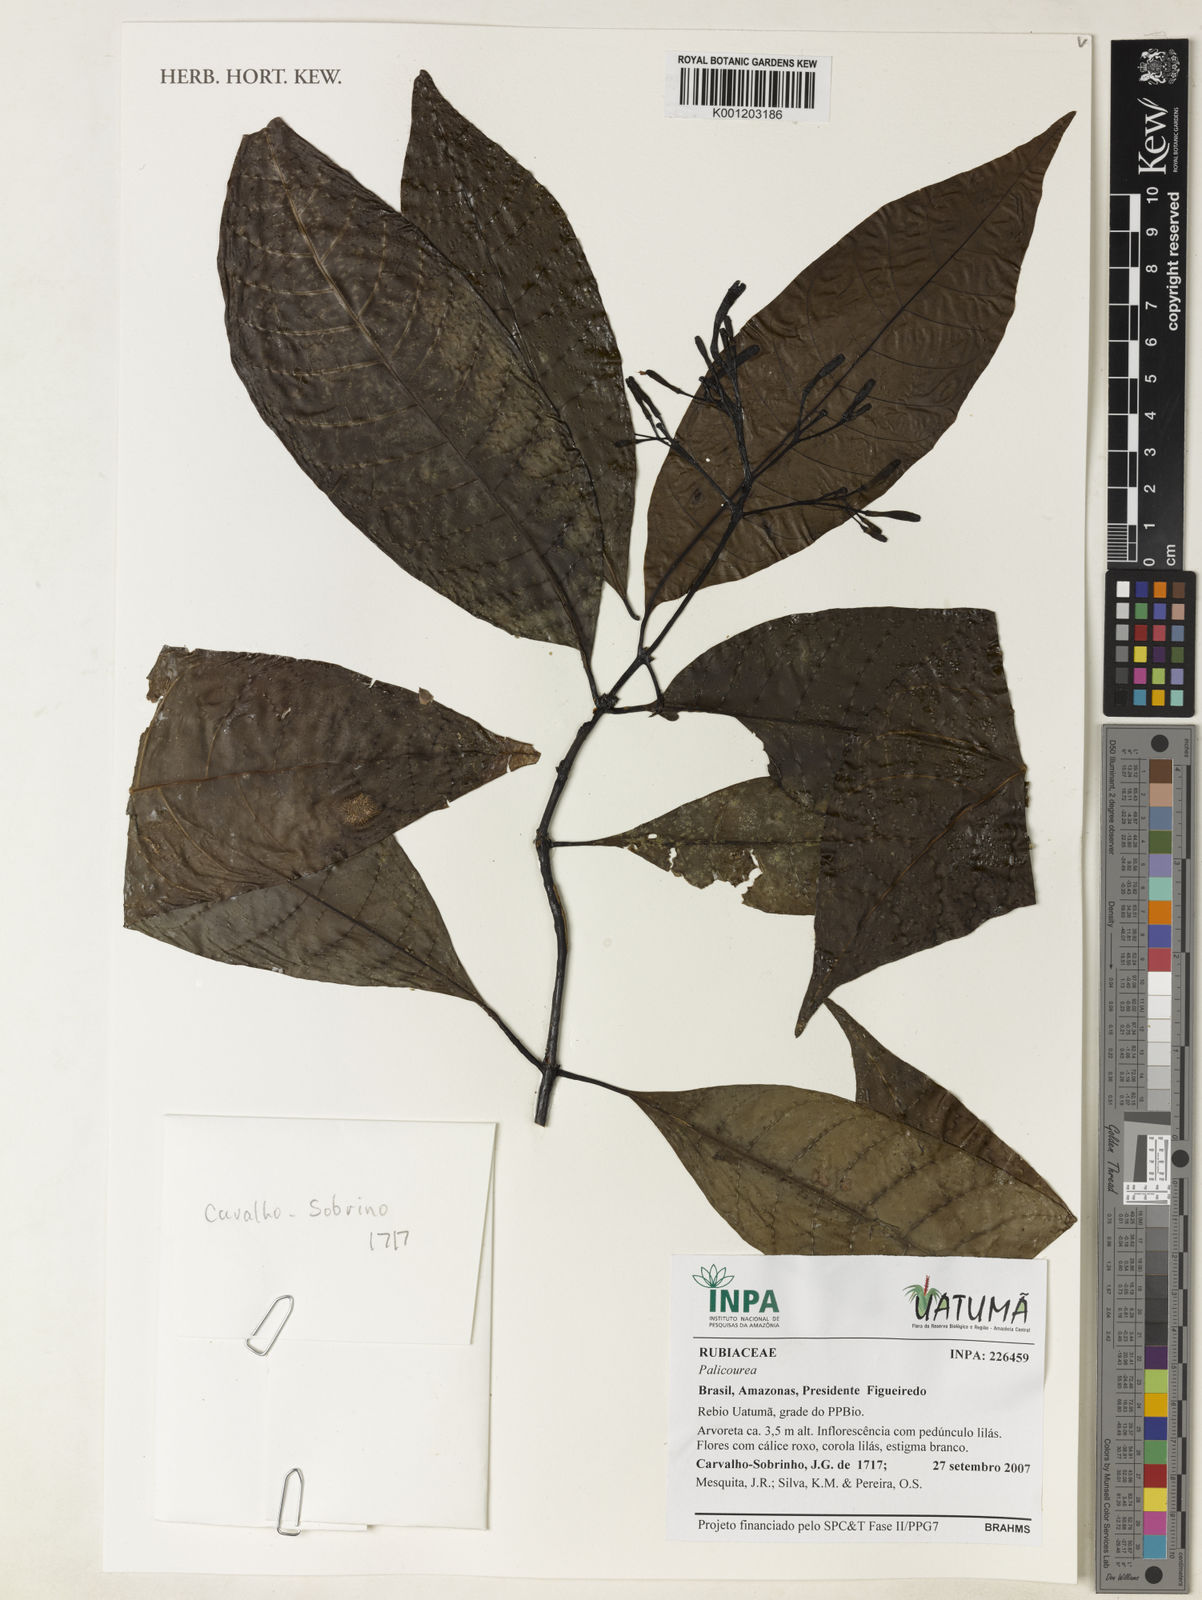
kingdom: Plantae
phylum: Tracheophyta
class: Magnoliopsida
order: Gentianales
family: Rubiaceae
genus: Palicourea
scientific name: Palicourea
